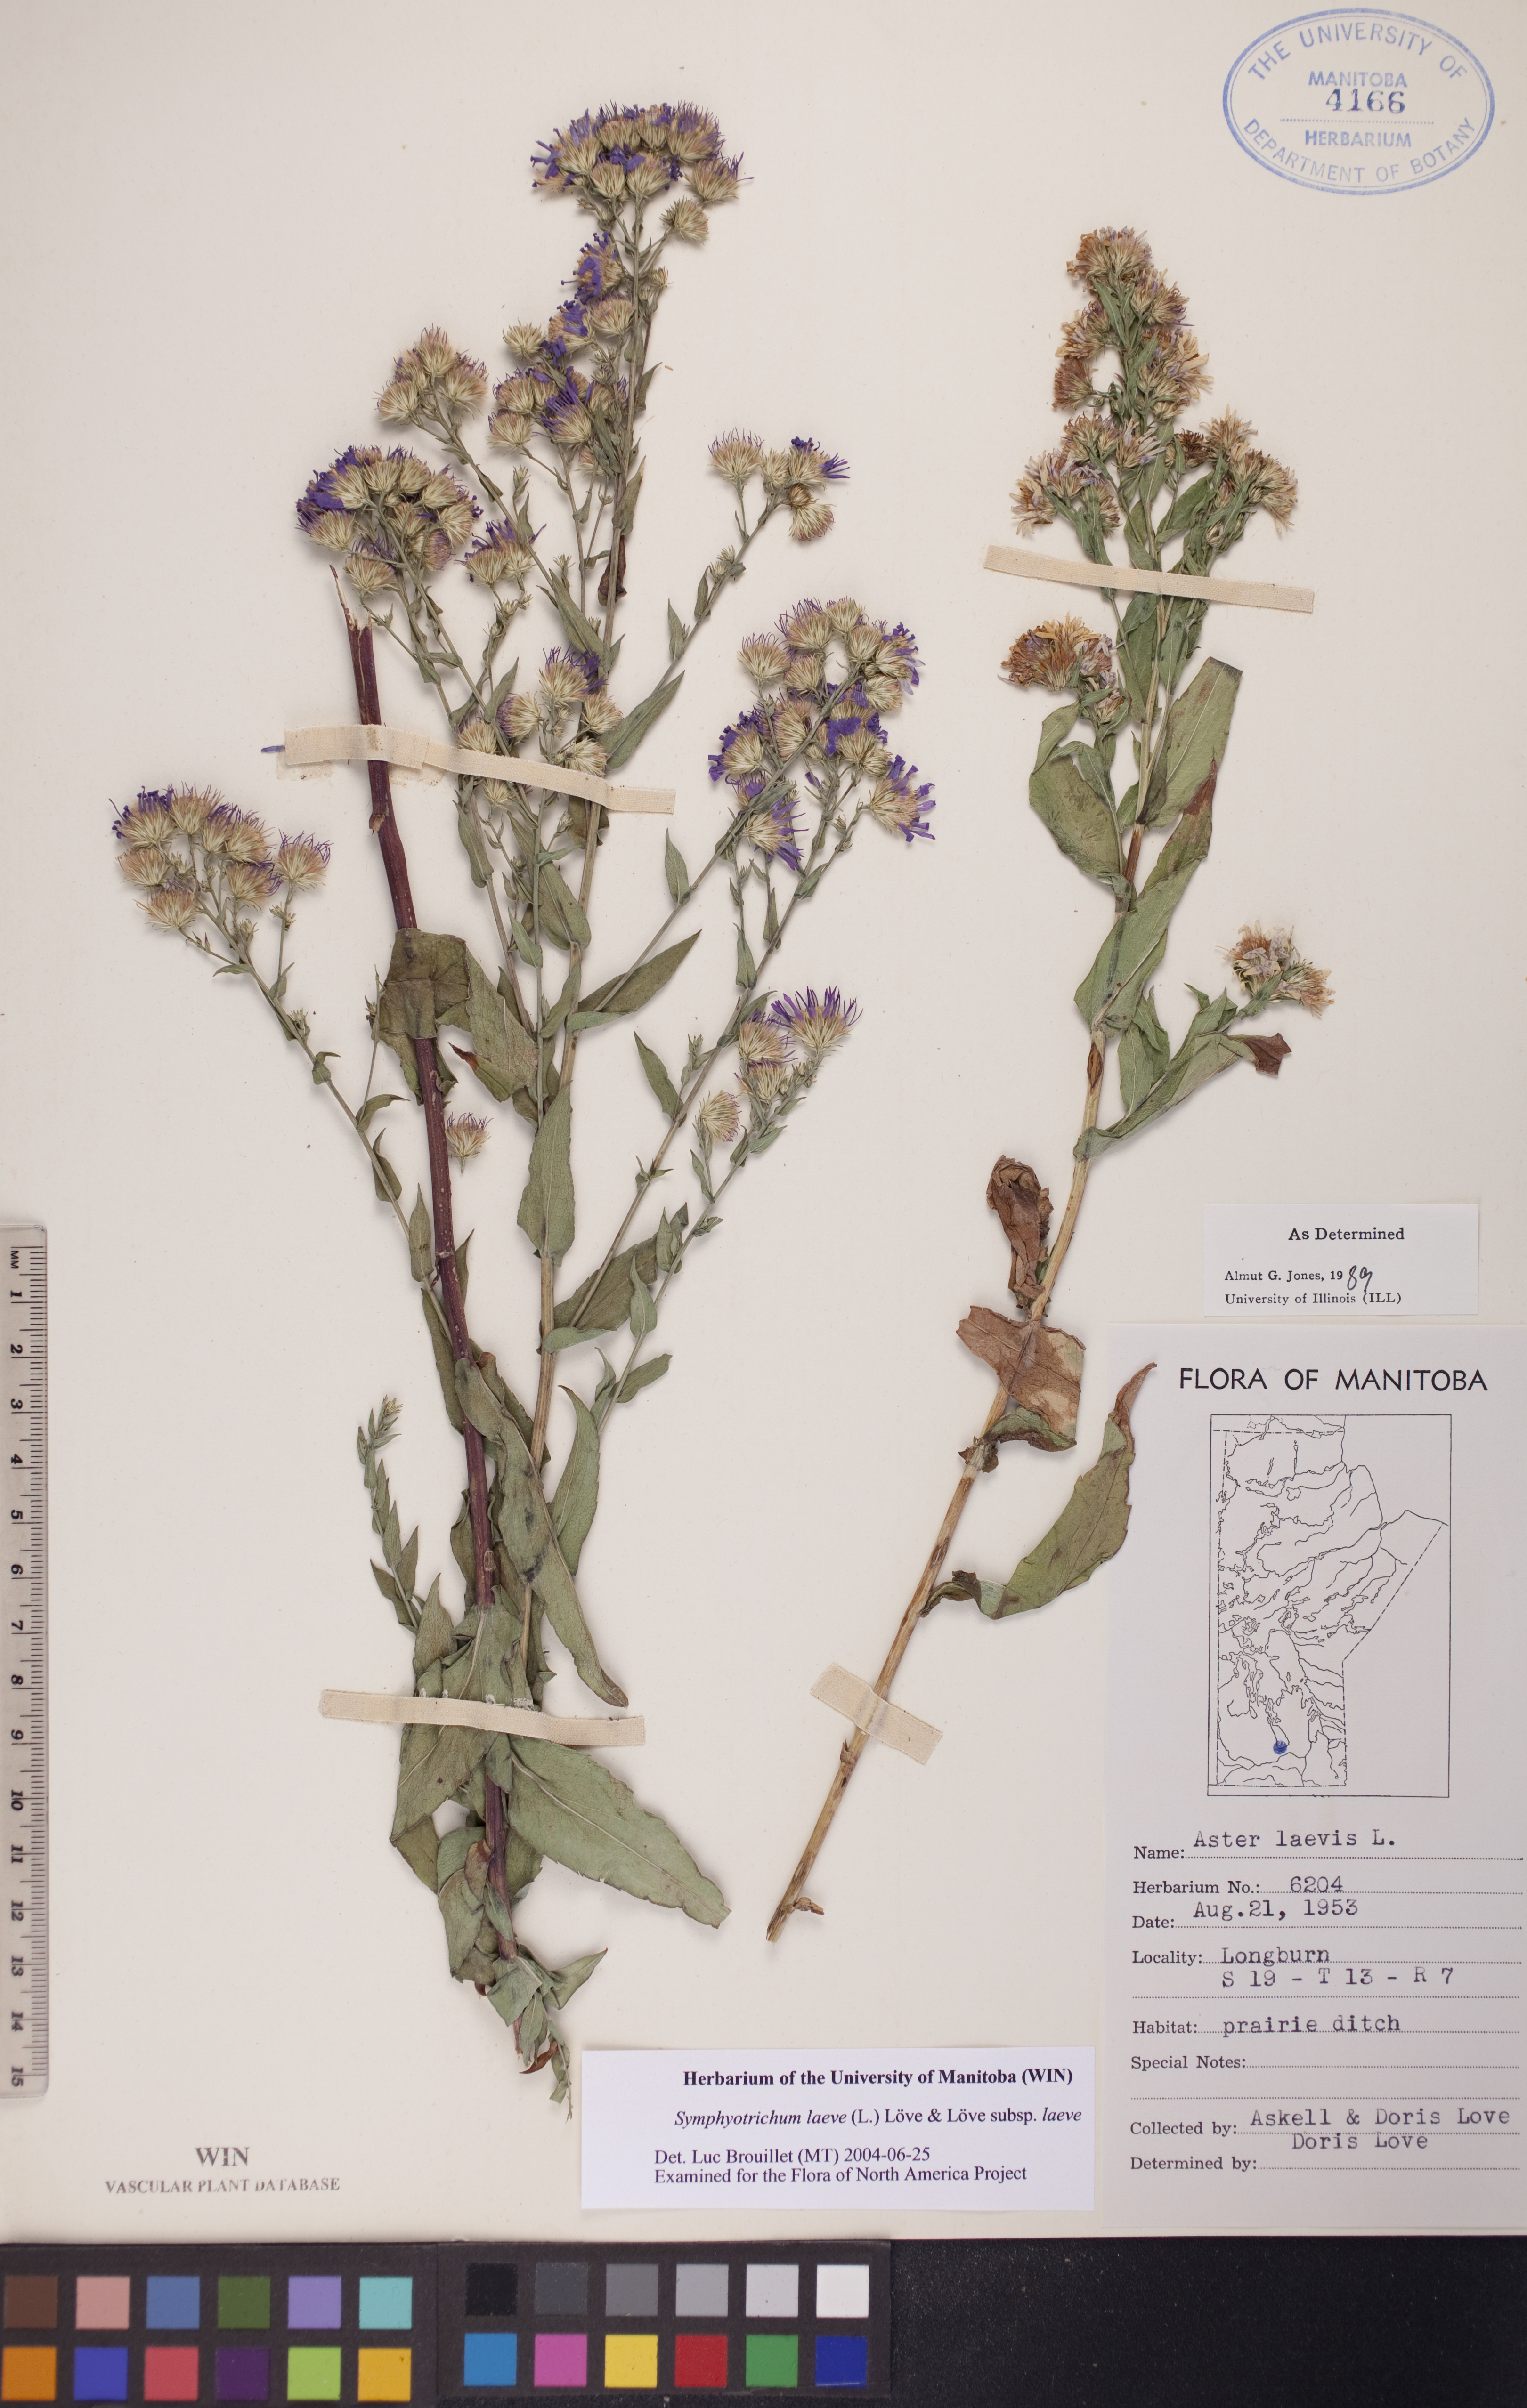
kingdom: Plantae
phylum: Tracheophyta
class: Magnoliopsida
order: Asterales
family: Asteraceae
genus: Symphyotrichum
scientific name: Symphyotrichum laeve
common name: Glaucous aster
